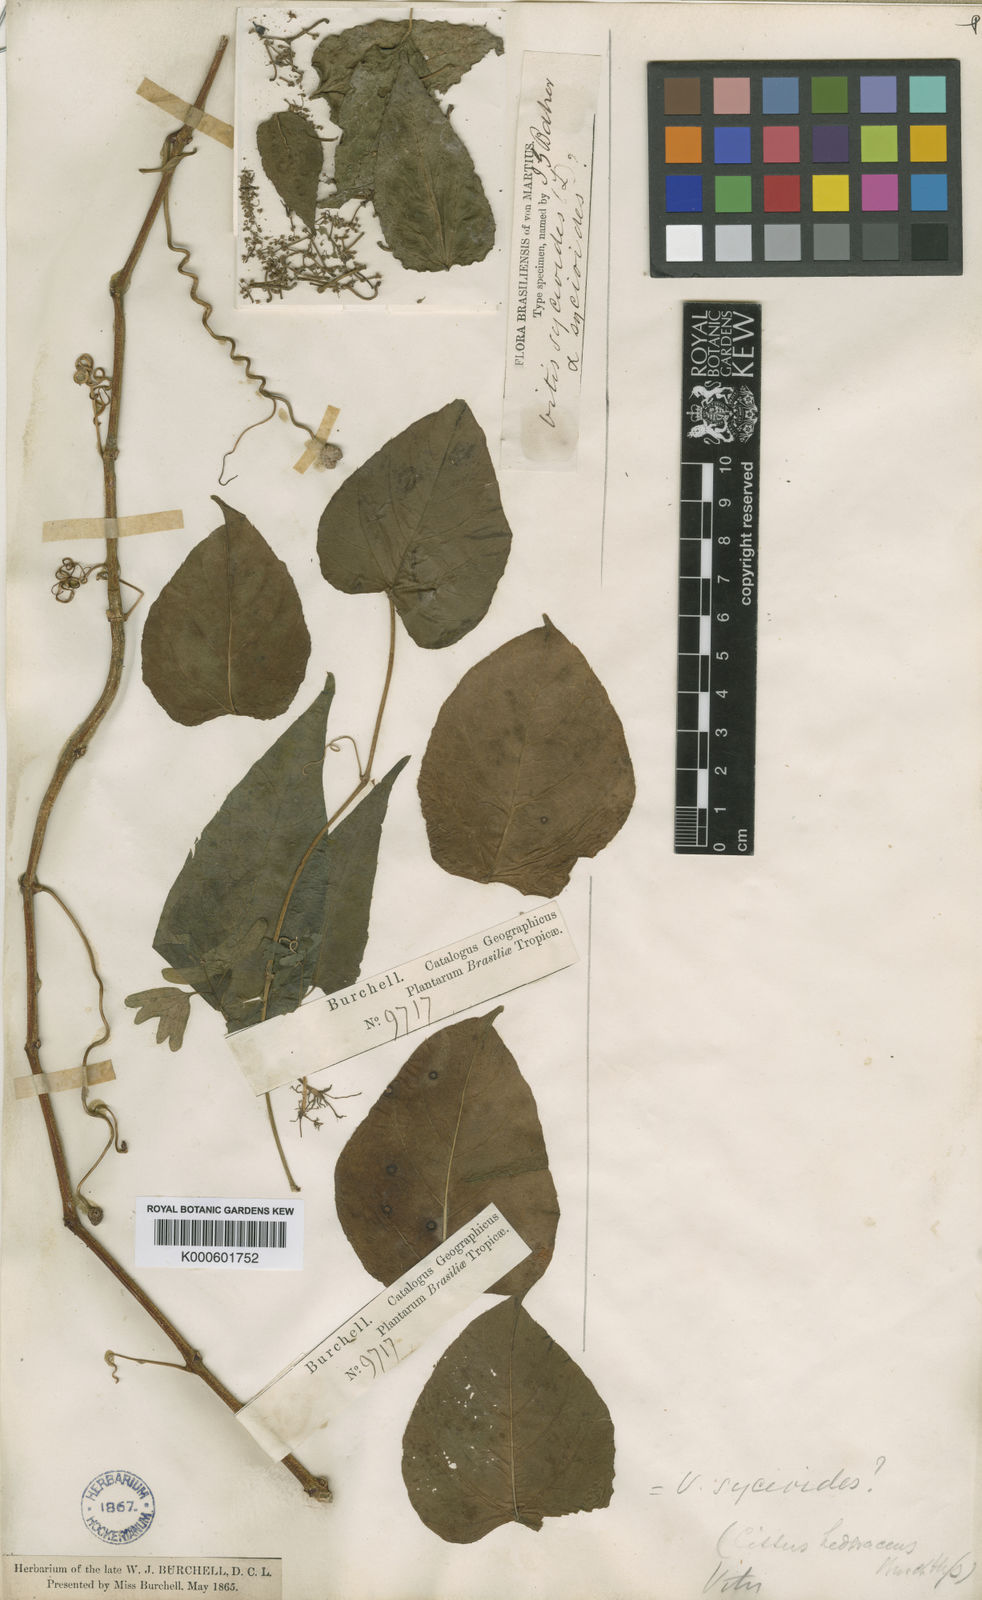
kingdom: Plantae
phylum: Tracheophyta
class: Magnoliopsida
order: Vitales
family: Vitaceae
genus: Cissus
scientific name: Cissus verticillata
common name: Princess vine
